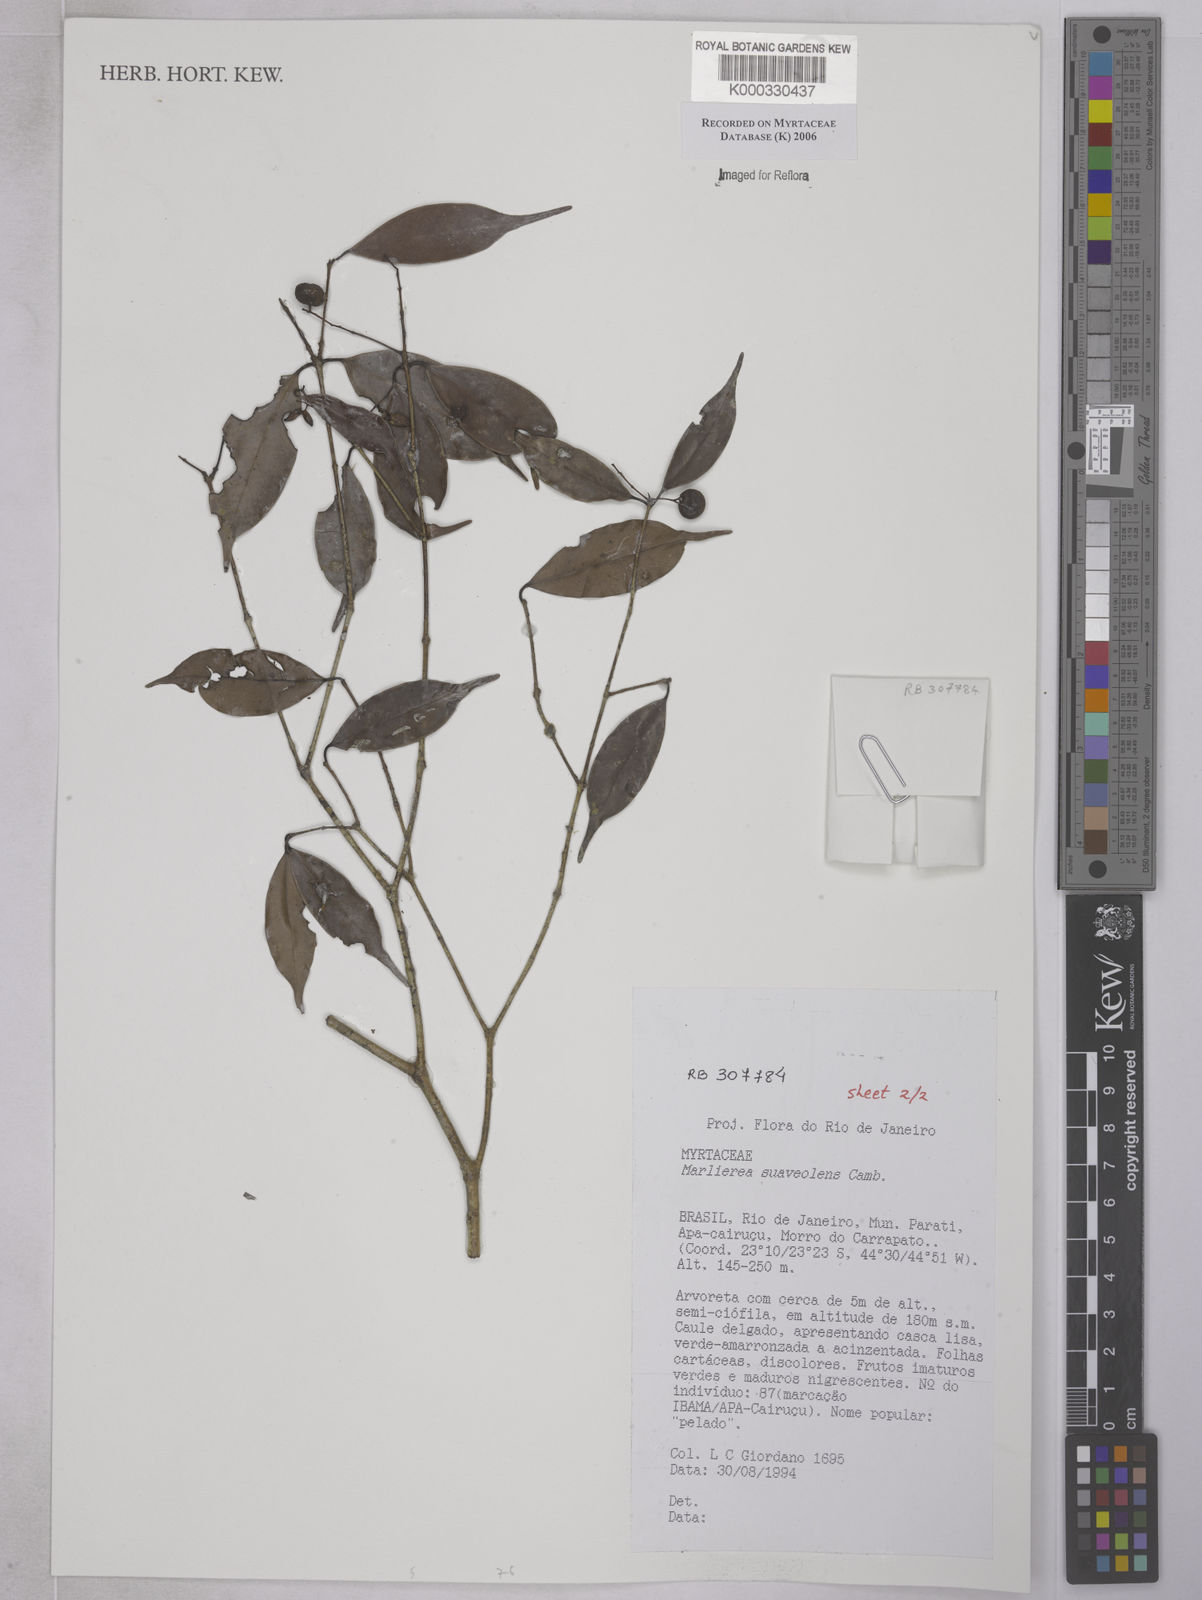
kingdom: Plantae
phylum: Tracheophyta
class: Magnoliopsida
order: Myrtales
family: Myrtaceae
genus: Myrcia
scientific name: Myrcia neosuaveolens
